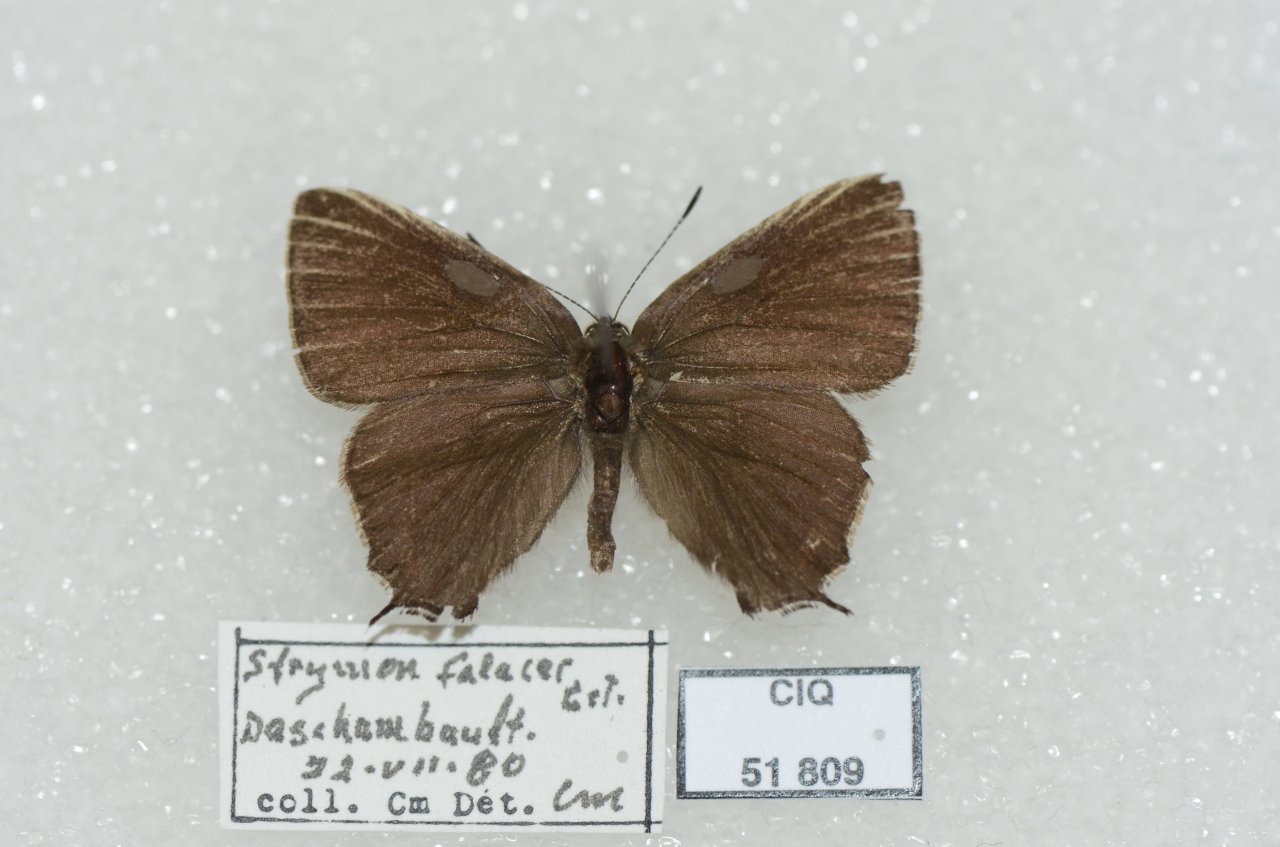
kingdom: Animalia
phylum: Arthropoda
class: Insecta
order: Lepidoptera
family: Lycaenidae
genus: Satyrium
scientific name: Satyrium calanus
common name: Banded Hairstreak
